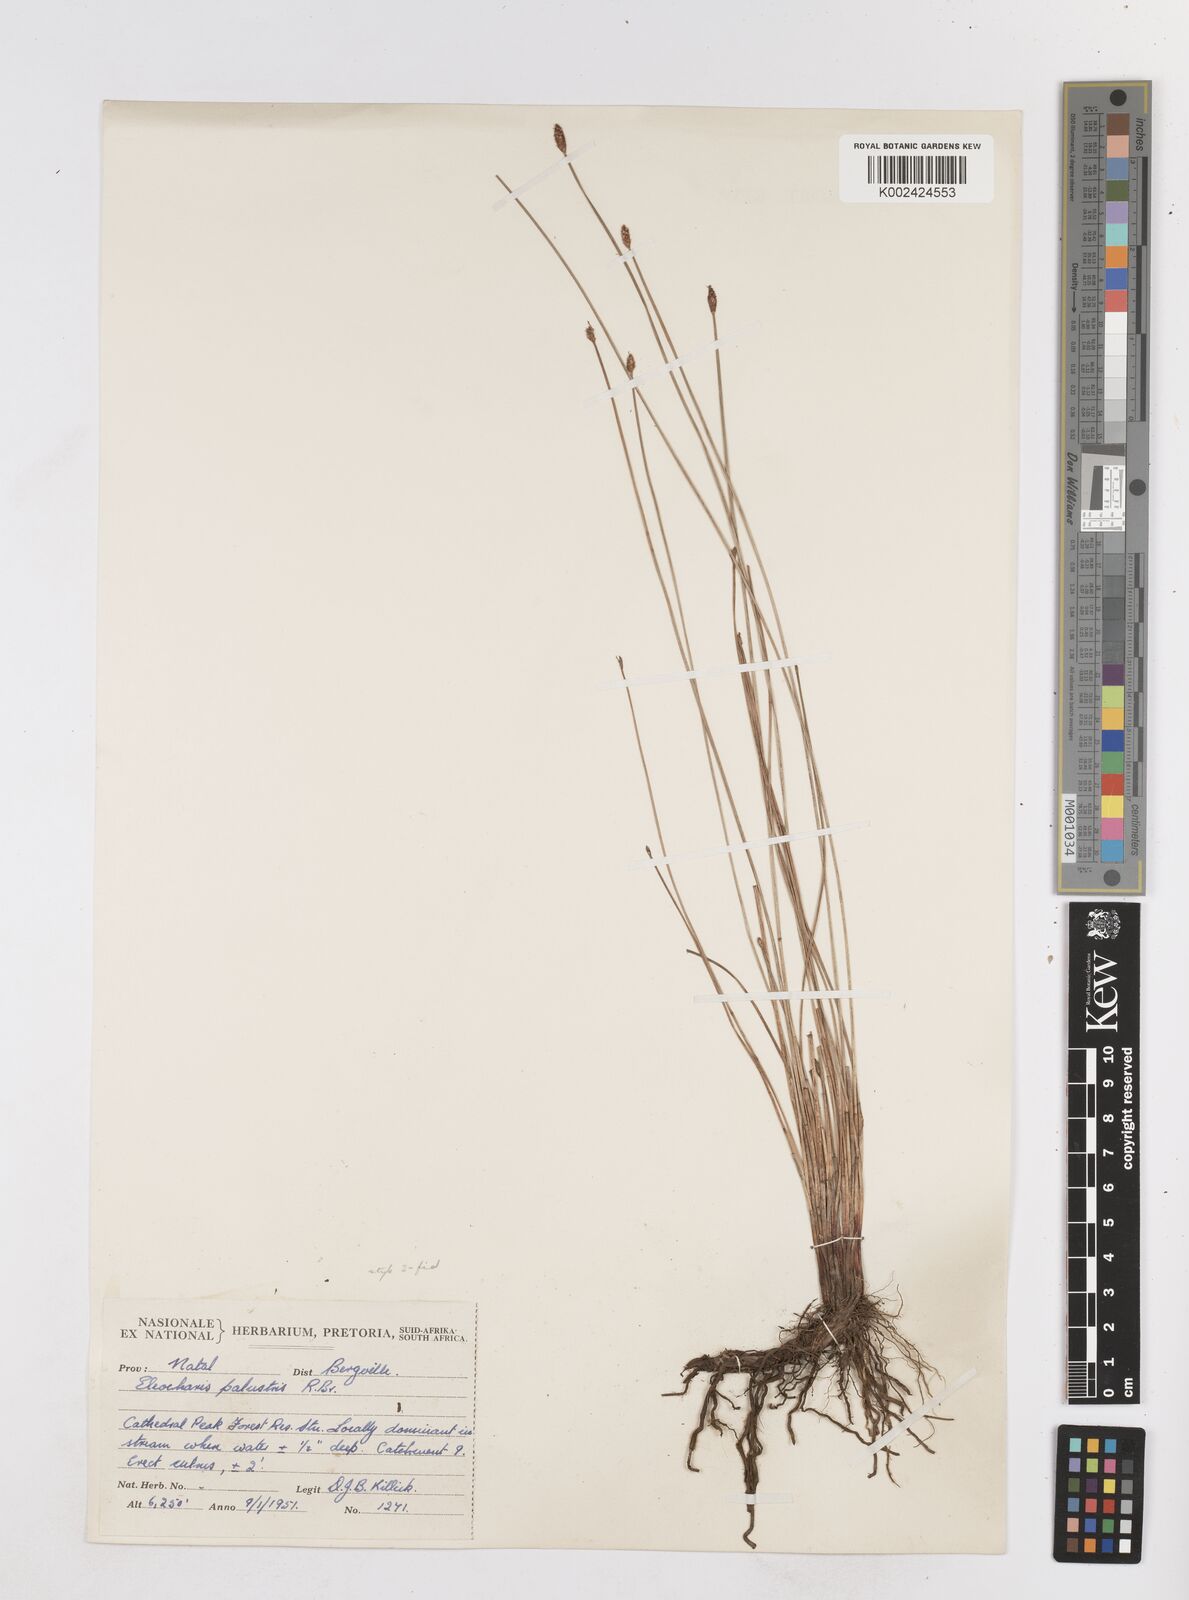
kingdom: Plantae
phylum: Tracheophyta
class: Liliopsida
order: Poales
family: Cyperaceae
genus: Eleocharis
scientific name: Eleocharis
